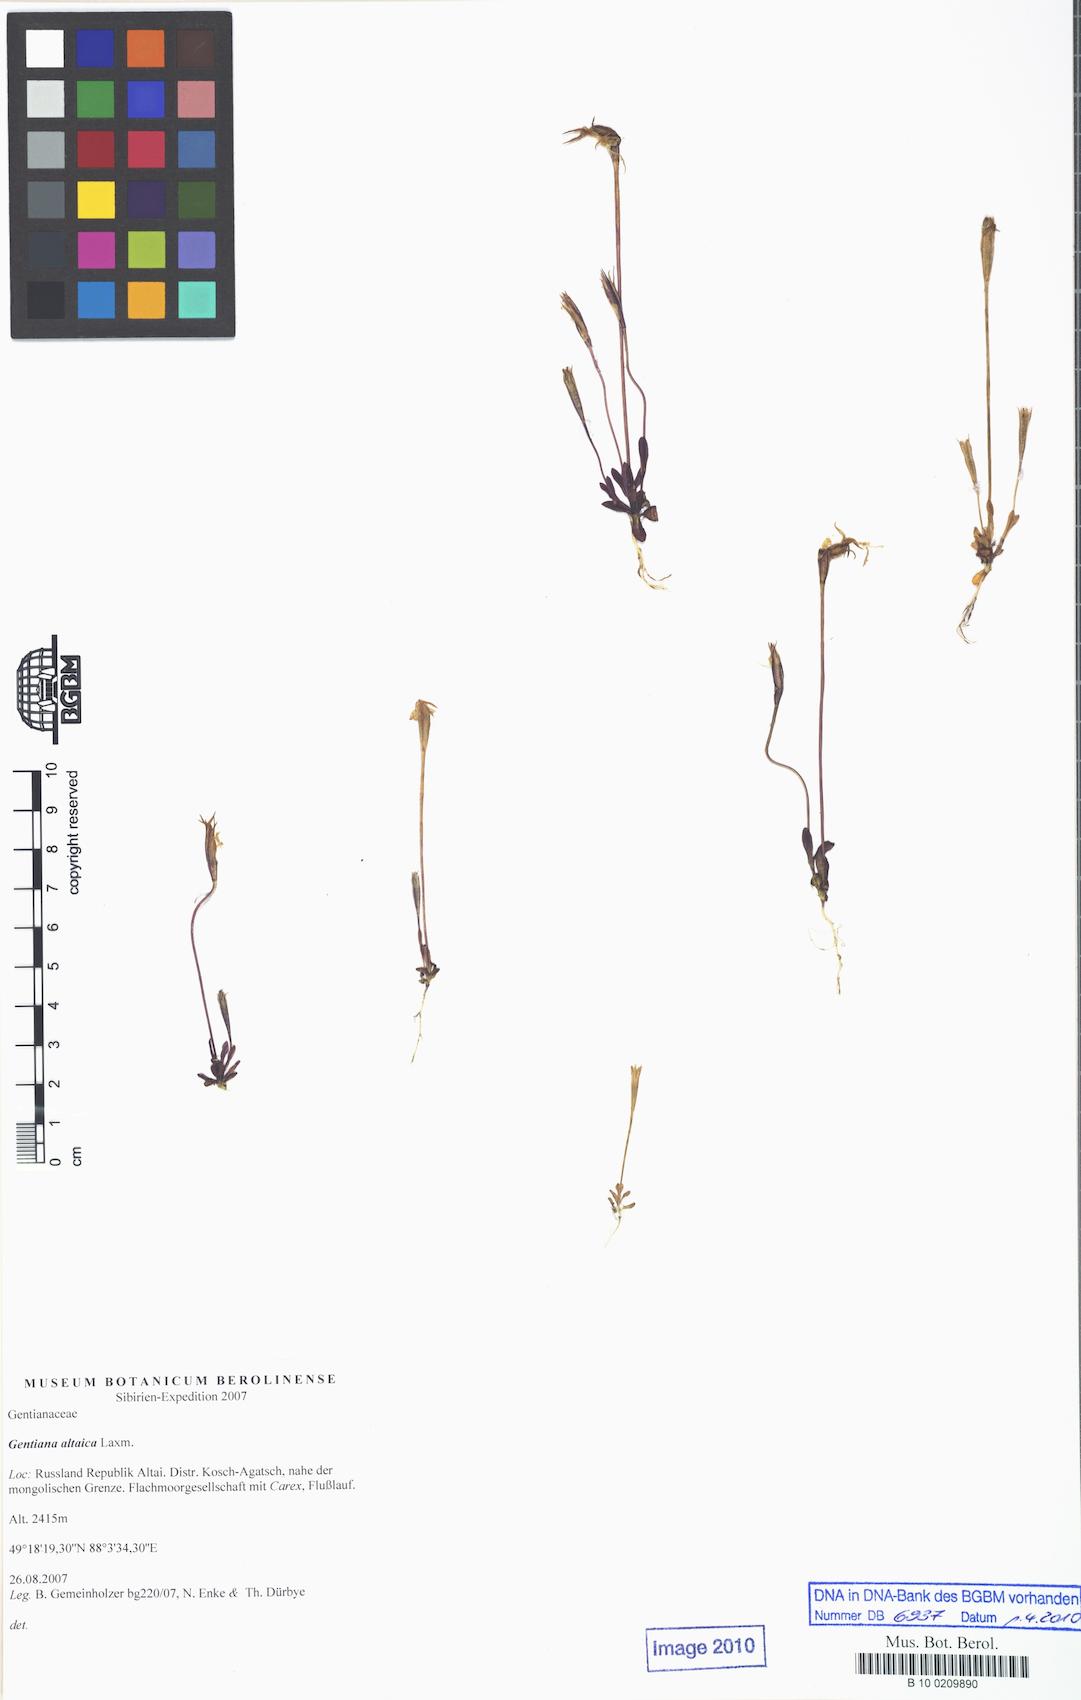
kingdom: Plantae
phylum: Tracheophyta
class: Magnoliopsida
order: Gentianales
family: Gentianaceae
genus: Gentiana
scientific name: Gentiana grandiflora
